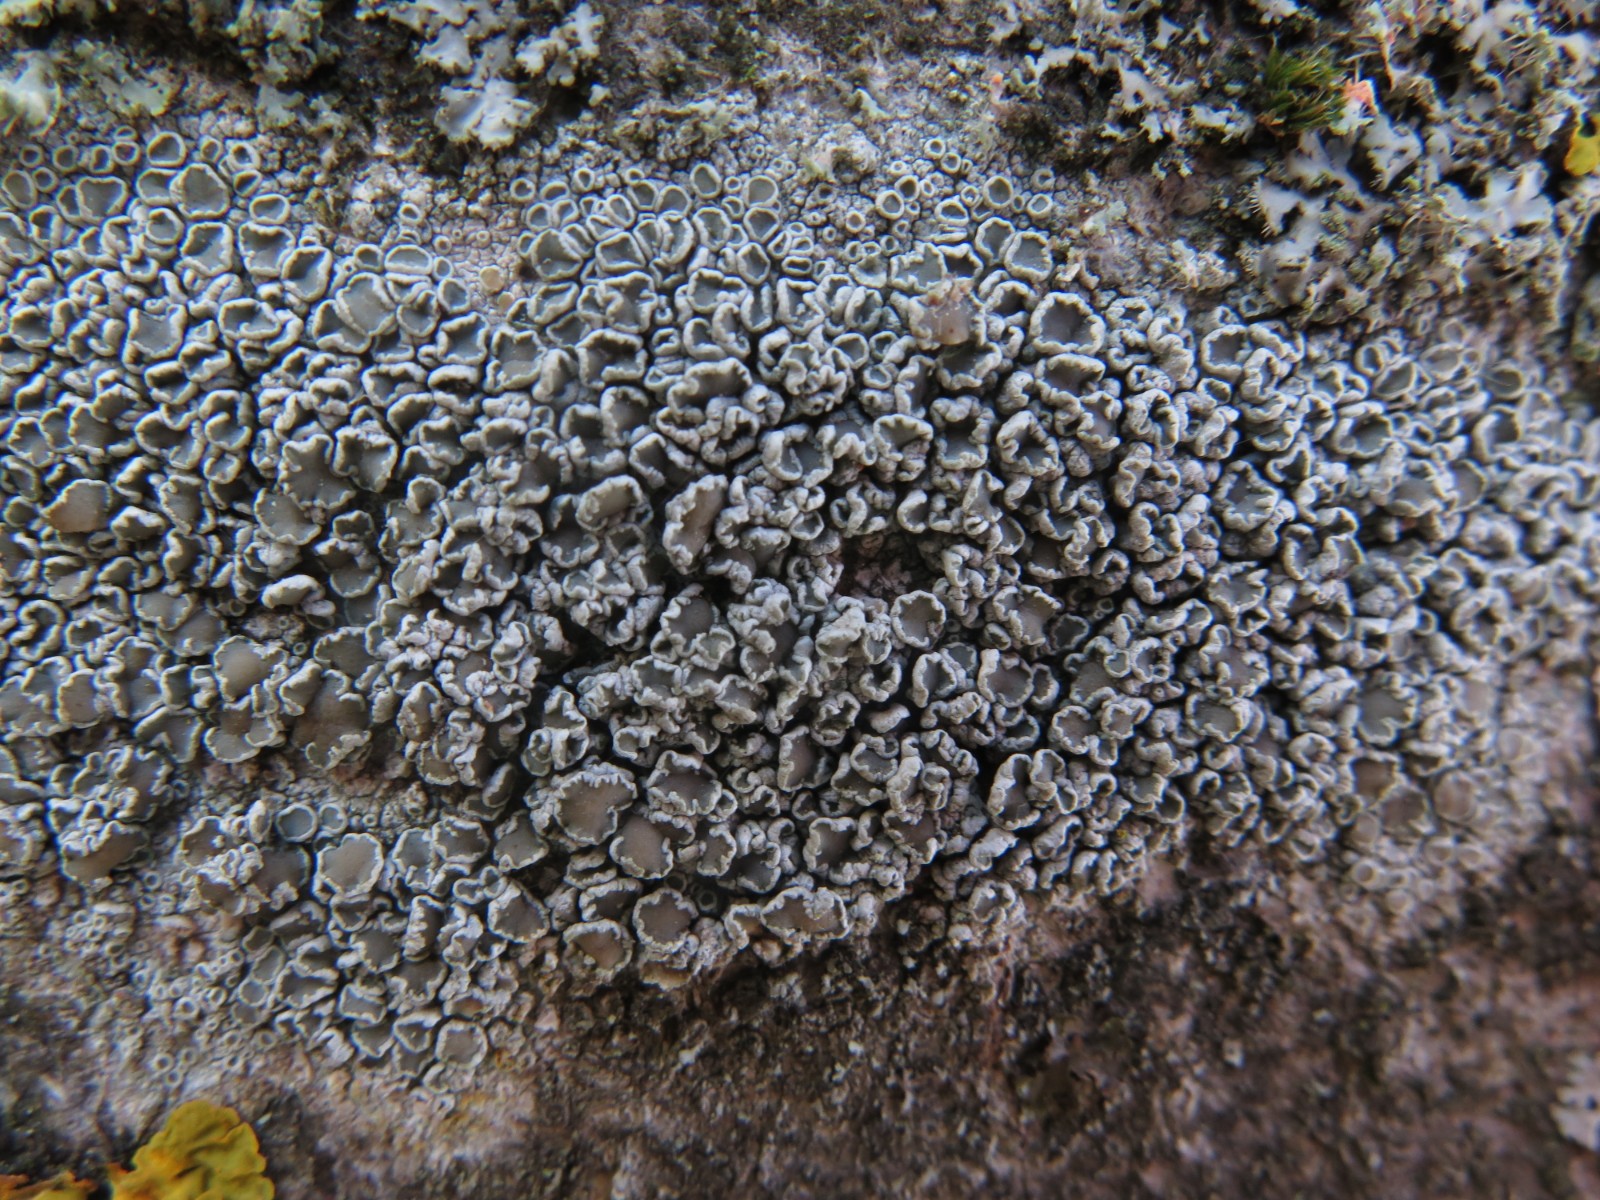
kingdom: Fungi
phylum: Ascomycota
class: Lecanoromycetes
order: Lecanorales
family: Lecanoraceae
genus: Lecanora
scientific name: Lecanora chlarotera
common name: brun kantskivelav
